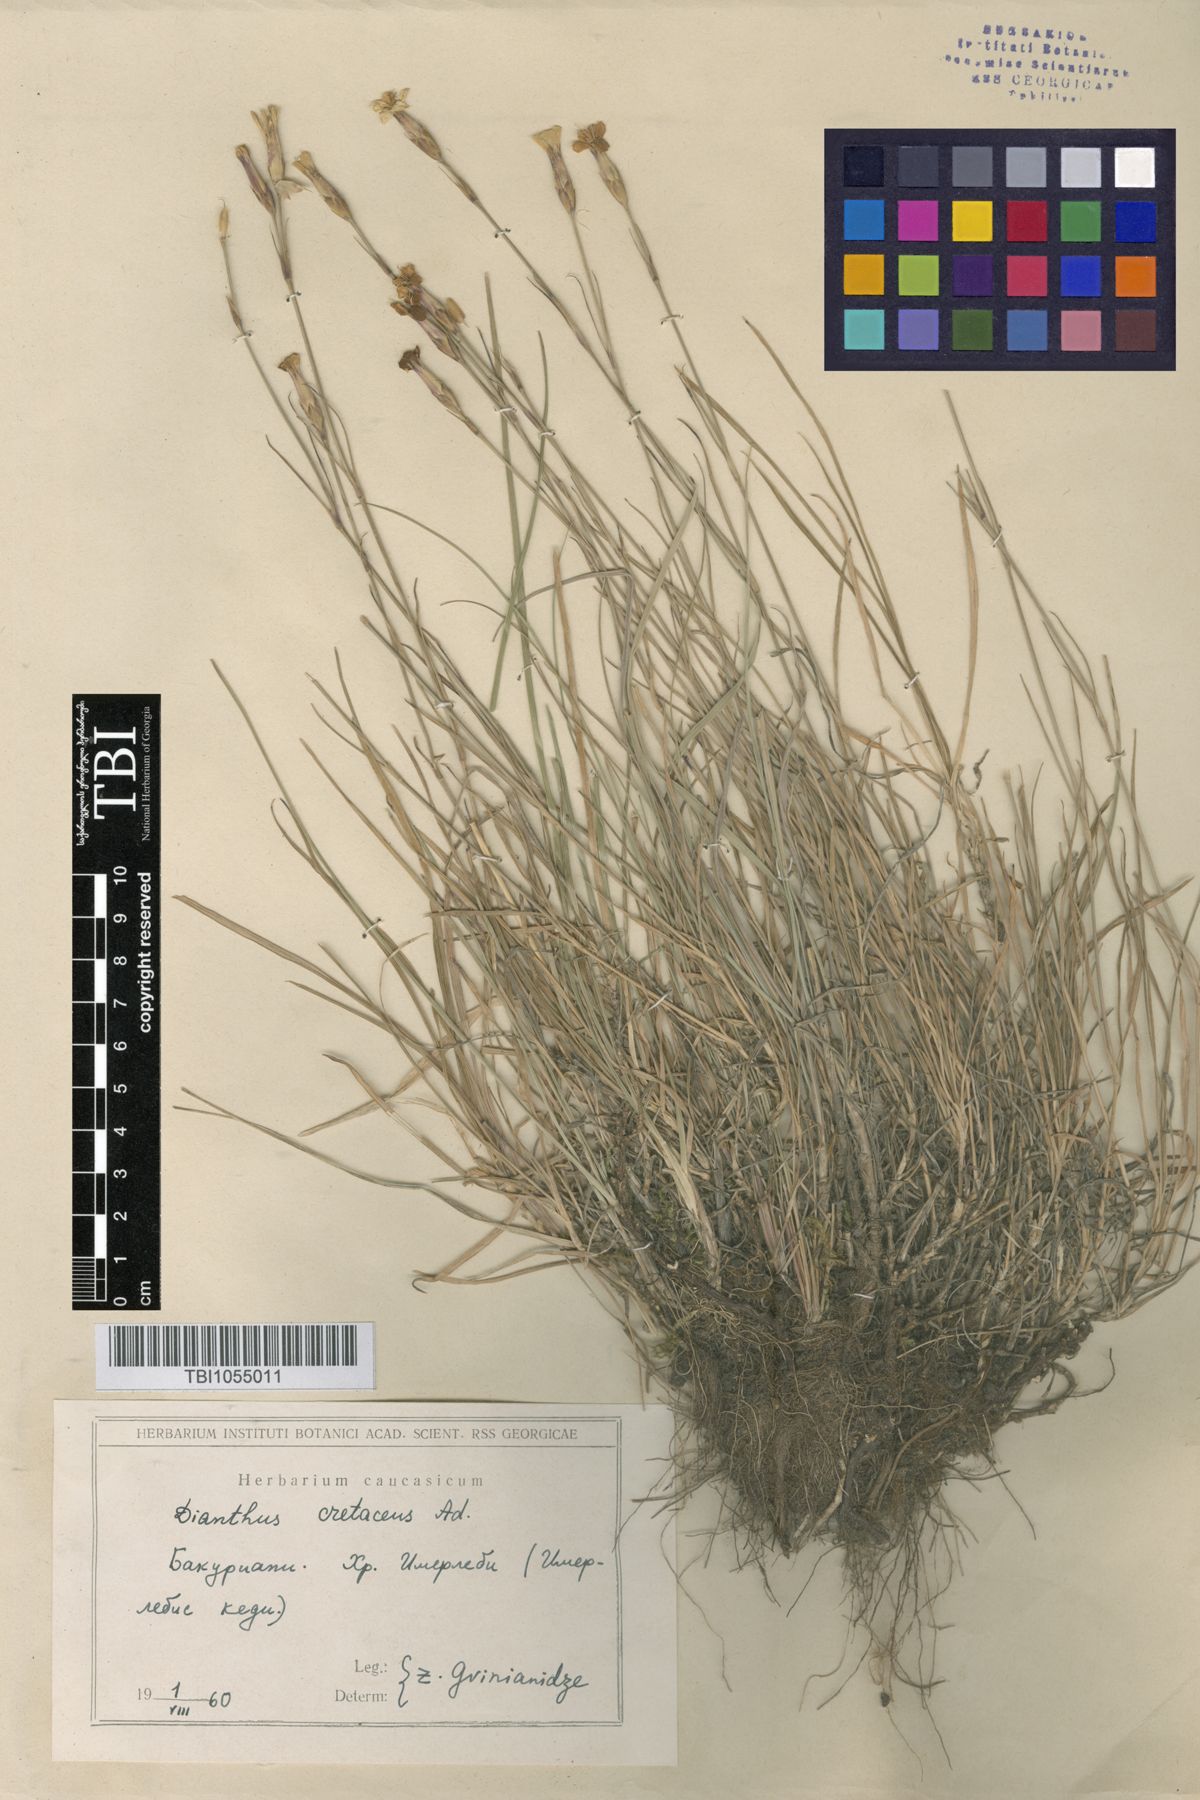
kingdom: Plantae
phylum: Tracheophyta
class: Magnoliopsida
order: Caryophyllales
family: Caryophyllaceae
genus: Dianthus
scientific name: Dianthus cretaceus
